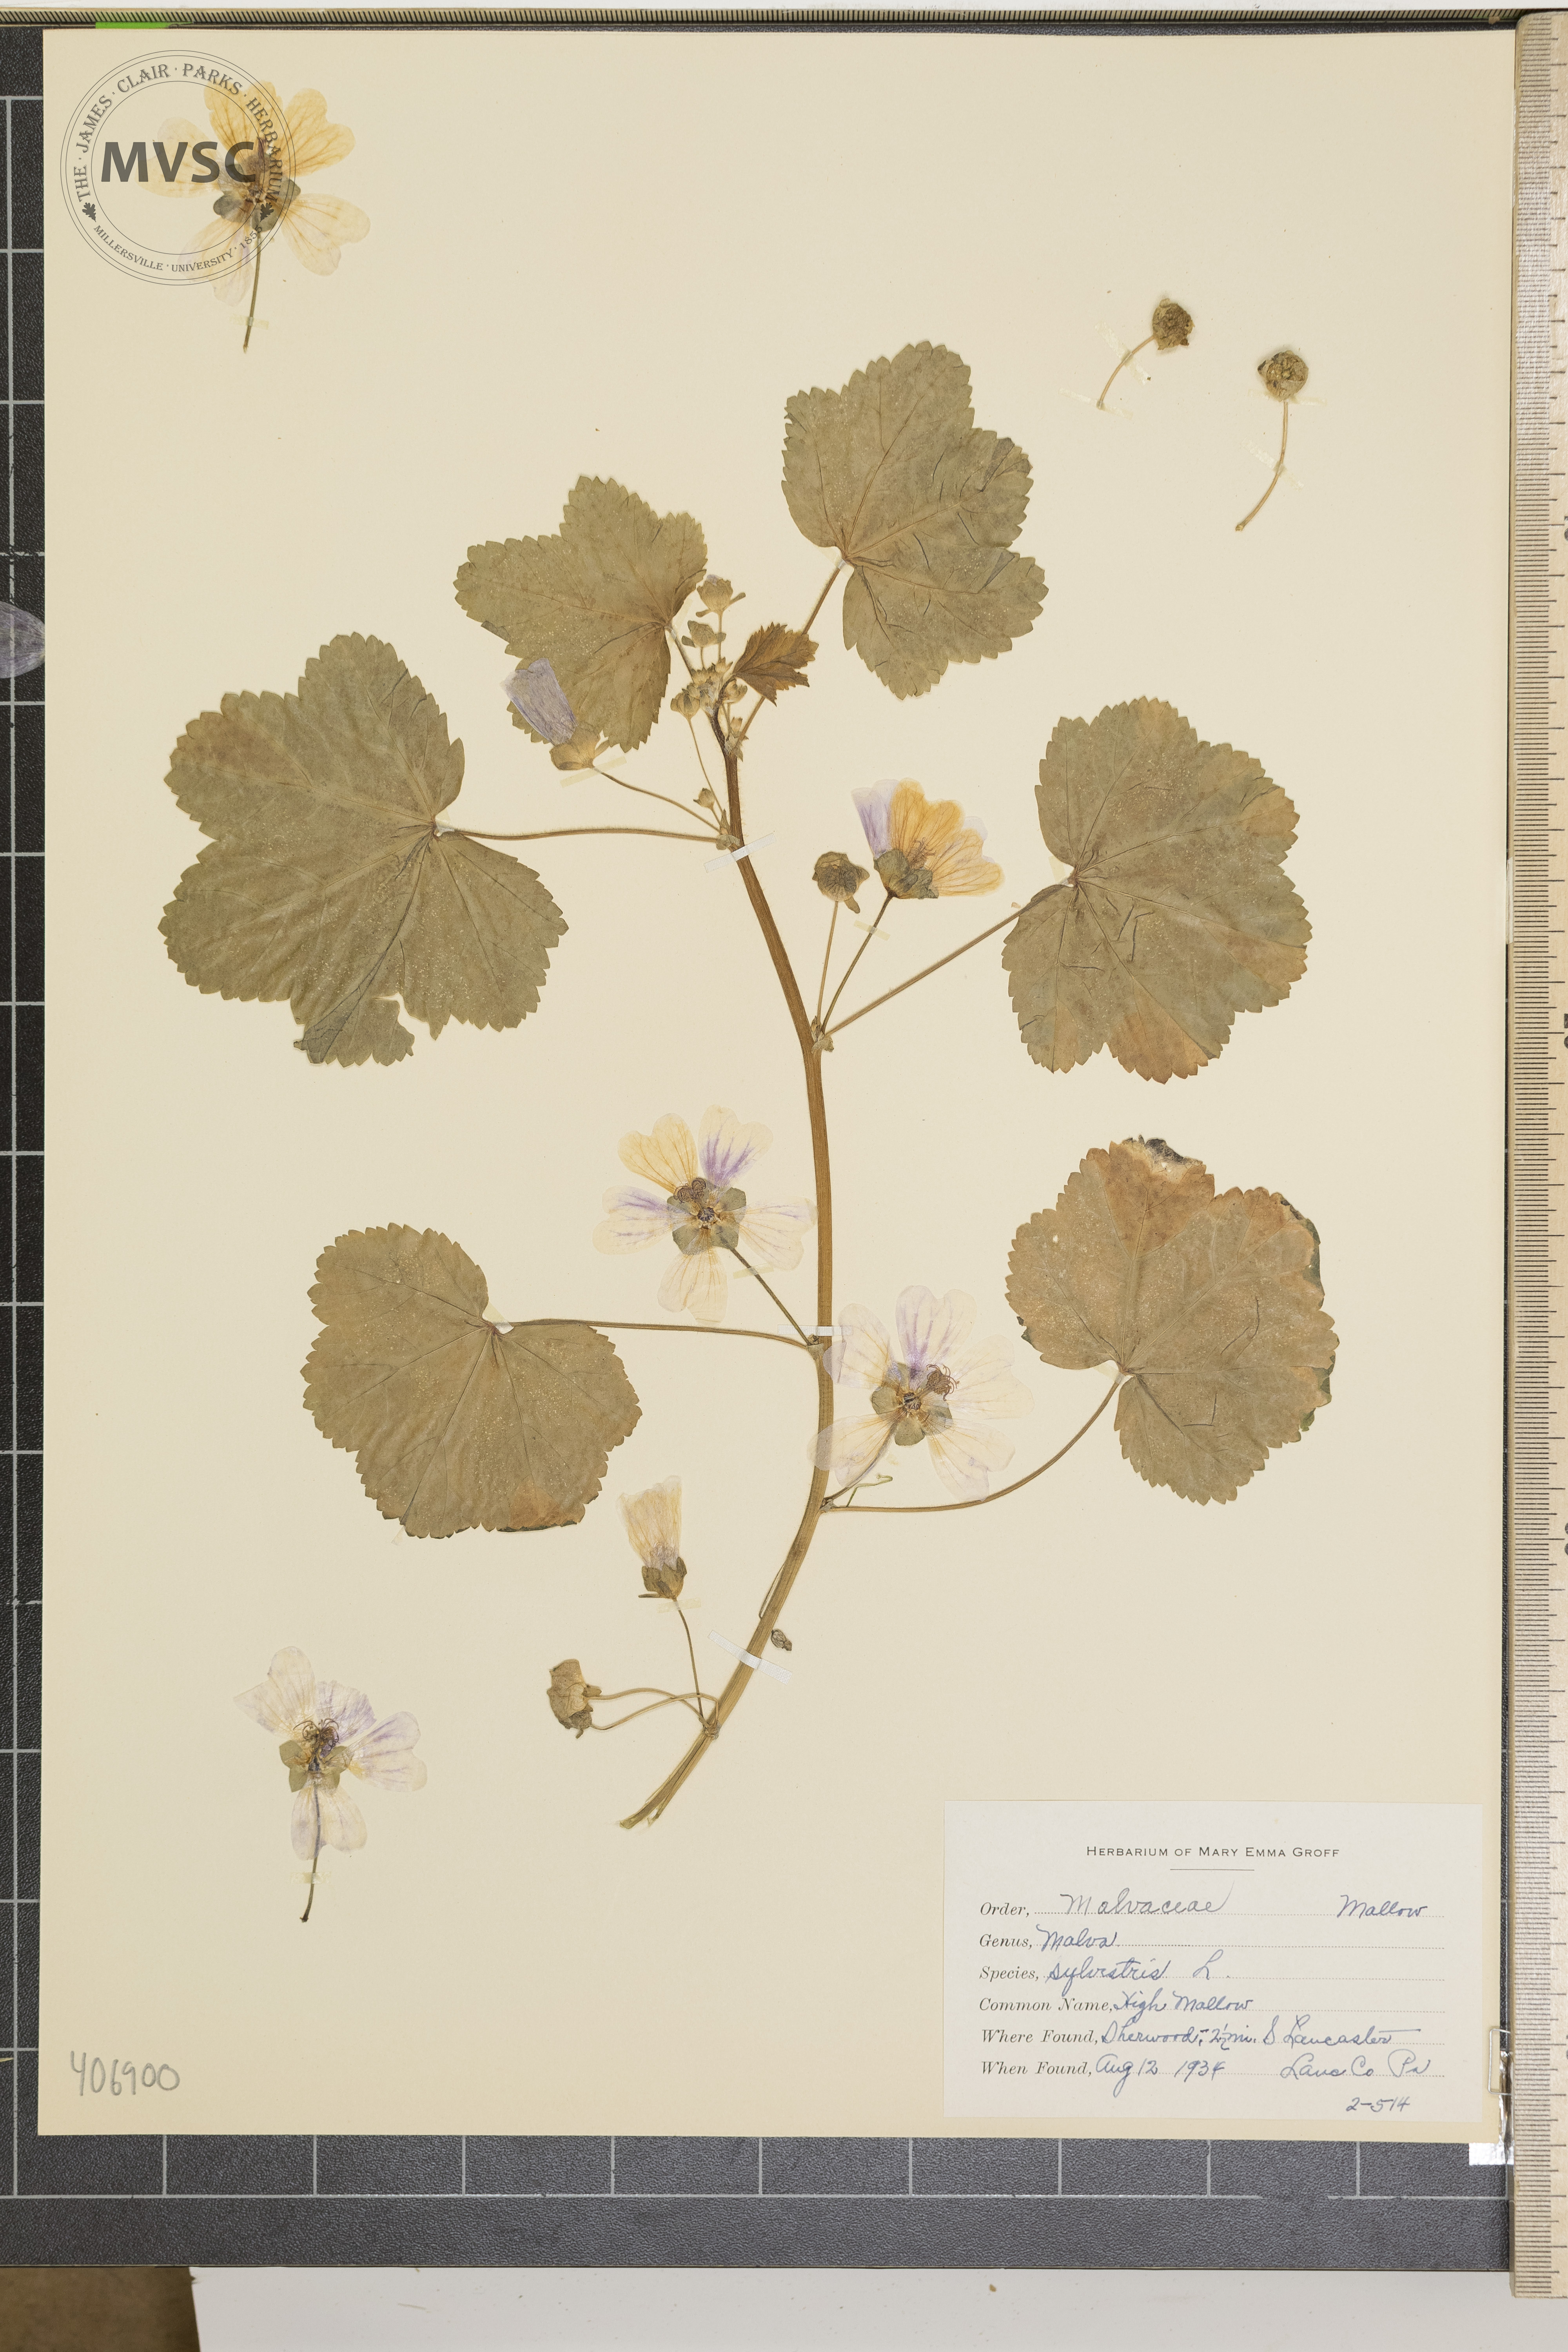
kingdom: Plantae
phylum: Tracheophyta
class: Magnoliopsida
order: Malvales
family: Malvaceae
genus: Malva
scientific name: Malva sylvestris
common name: High Mallow
